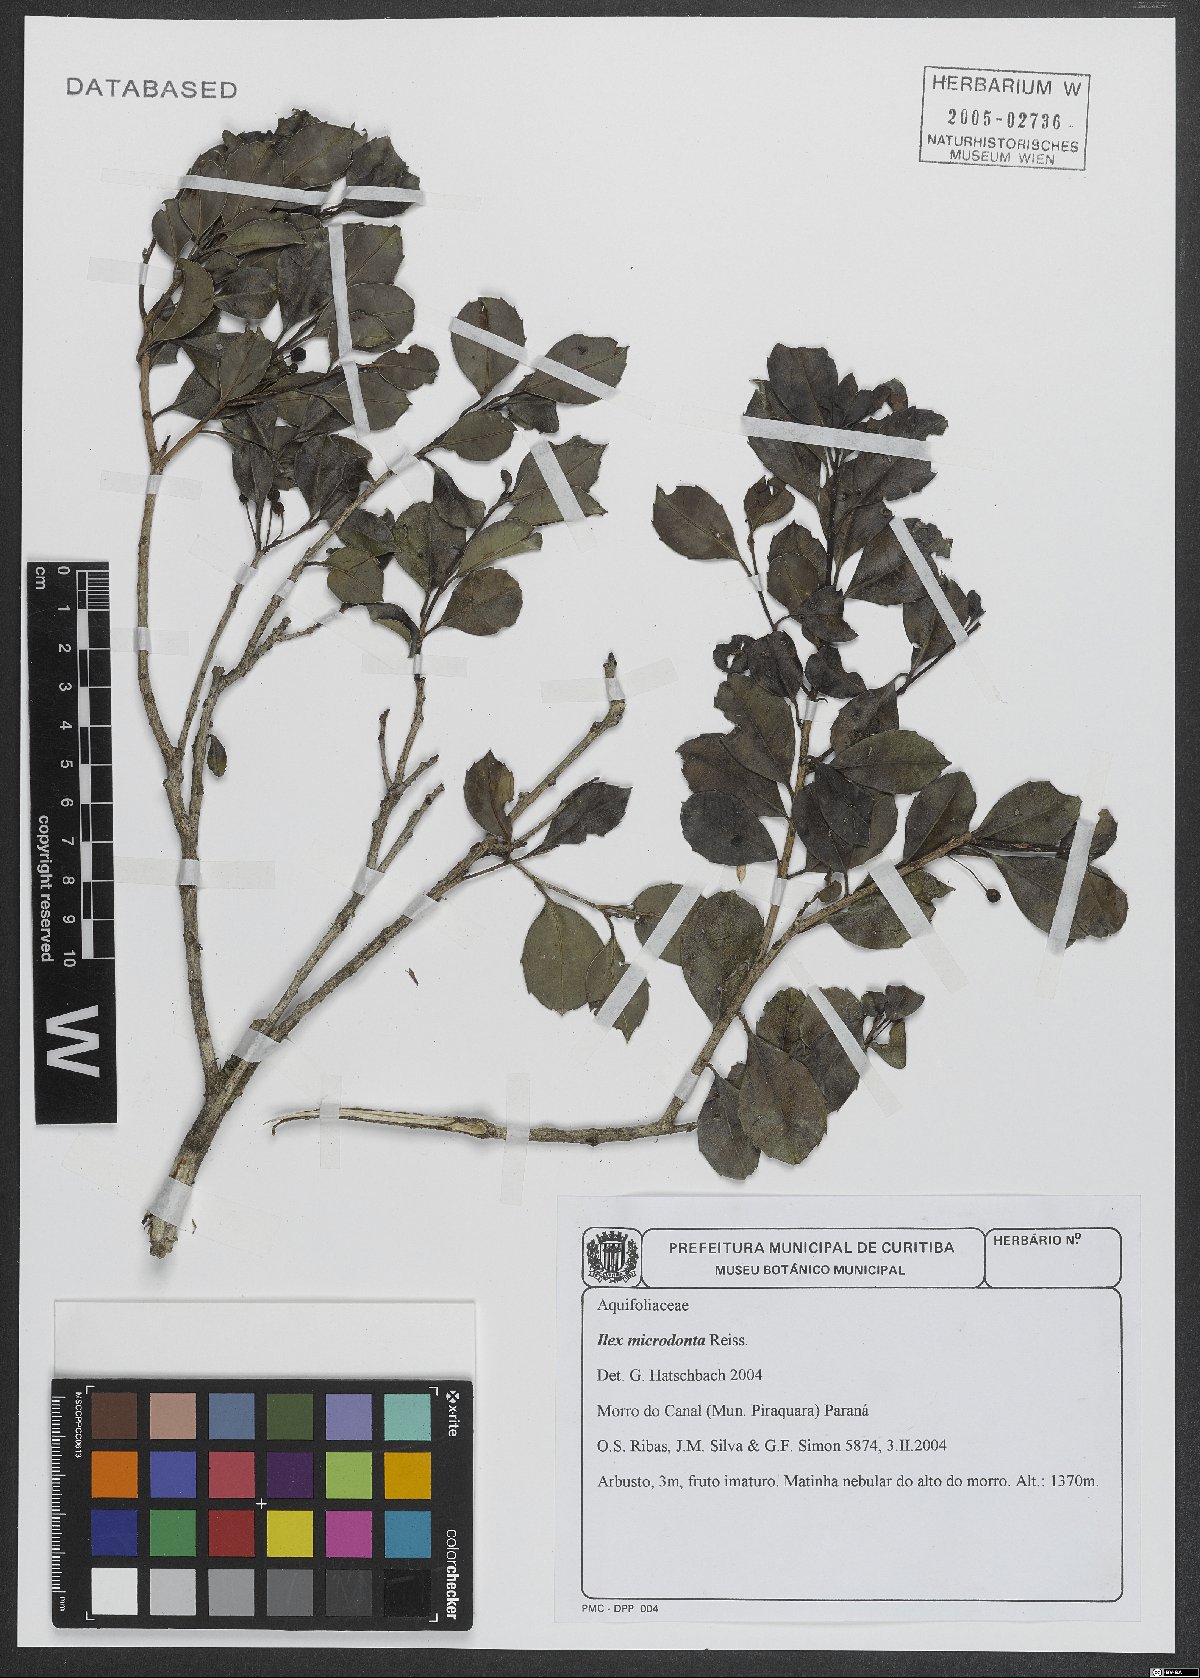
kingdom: Plantae
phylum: Tracheophyta
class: Magnoliopsida
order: Aquifoliales
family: Aquifoliaceae
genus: Ilex
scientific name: Ilex microdonta
